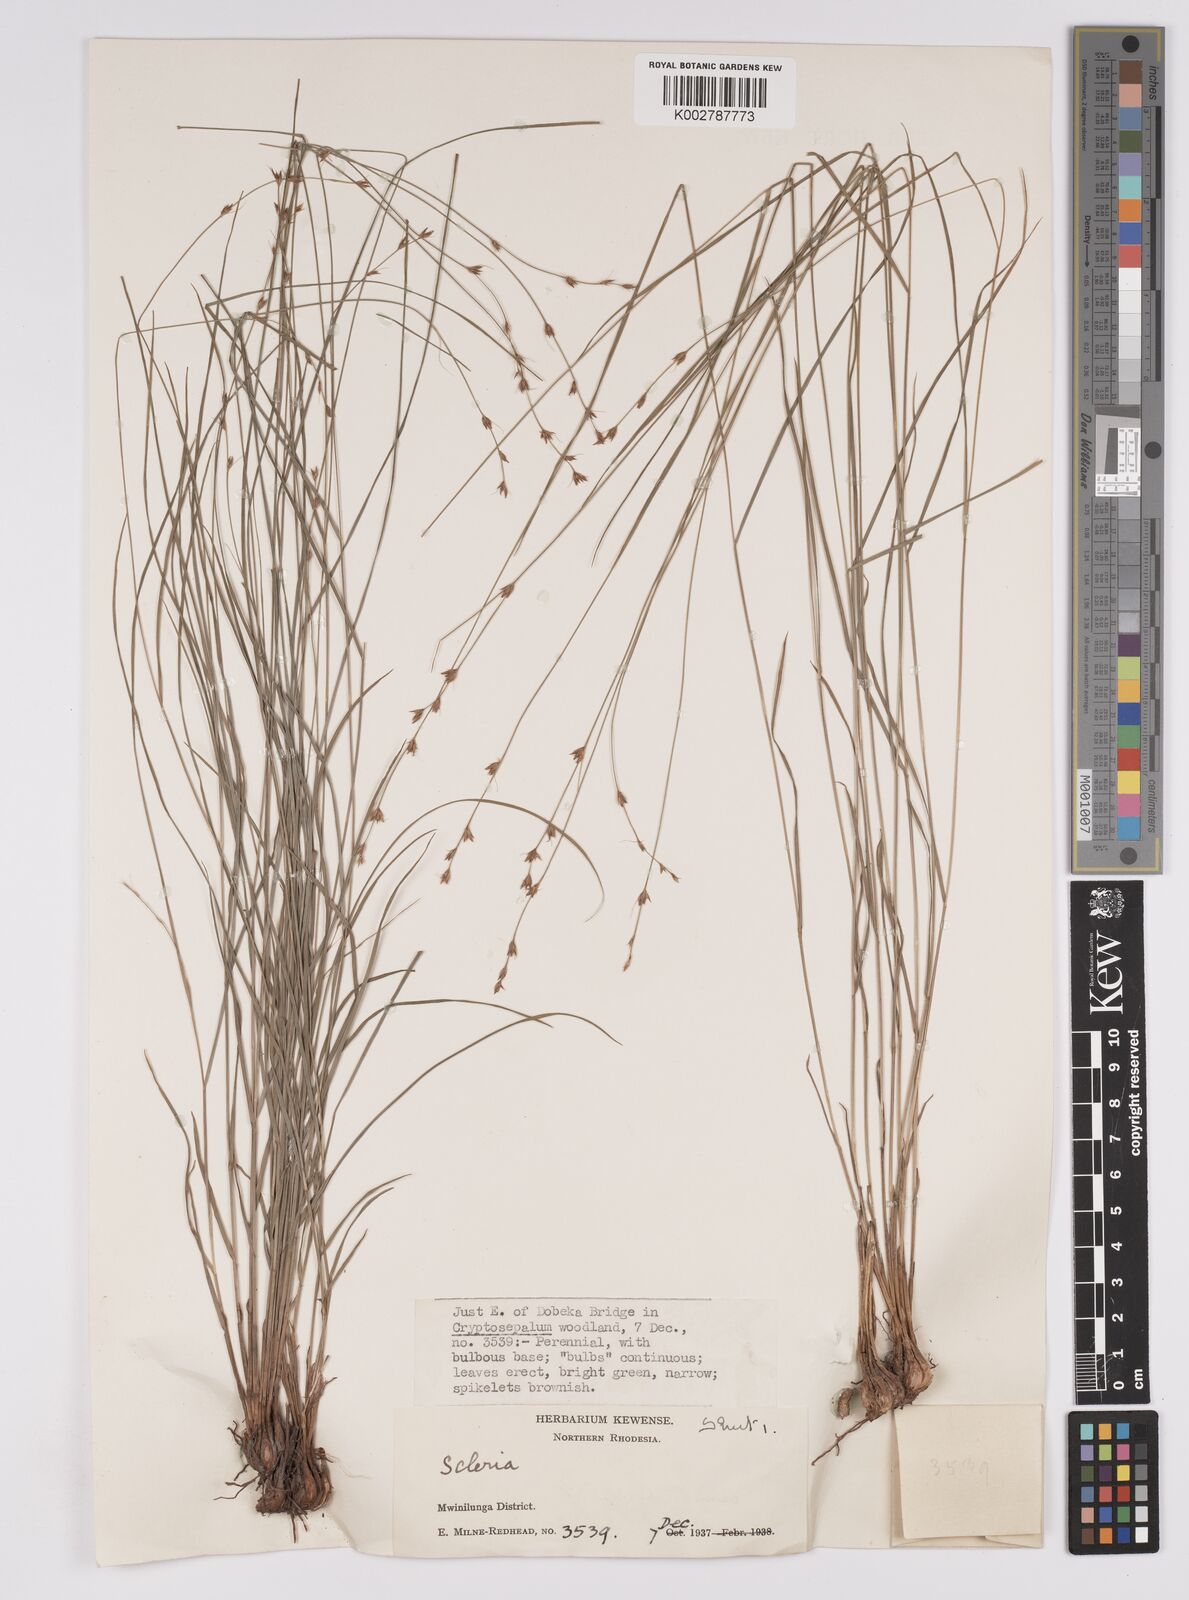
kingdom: Plantae
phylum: Tracheophyta
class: Liliopsida
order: Poales
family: Cyperaceae
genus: Scleria
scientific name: Scleria bulbifera
